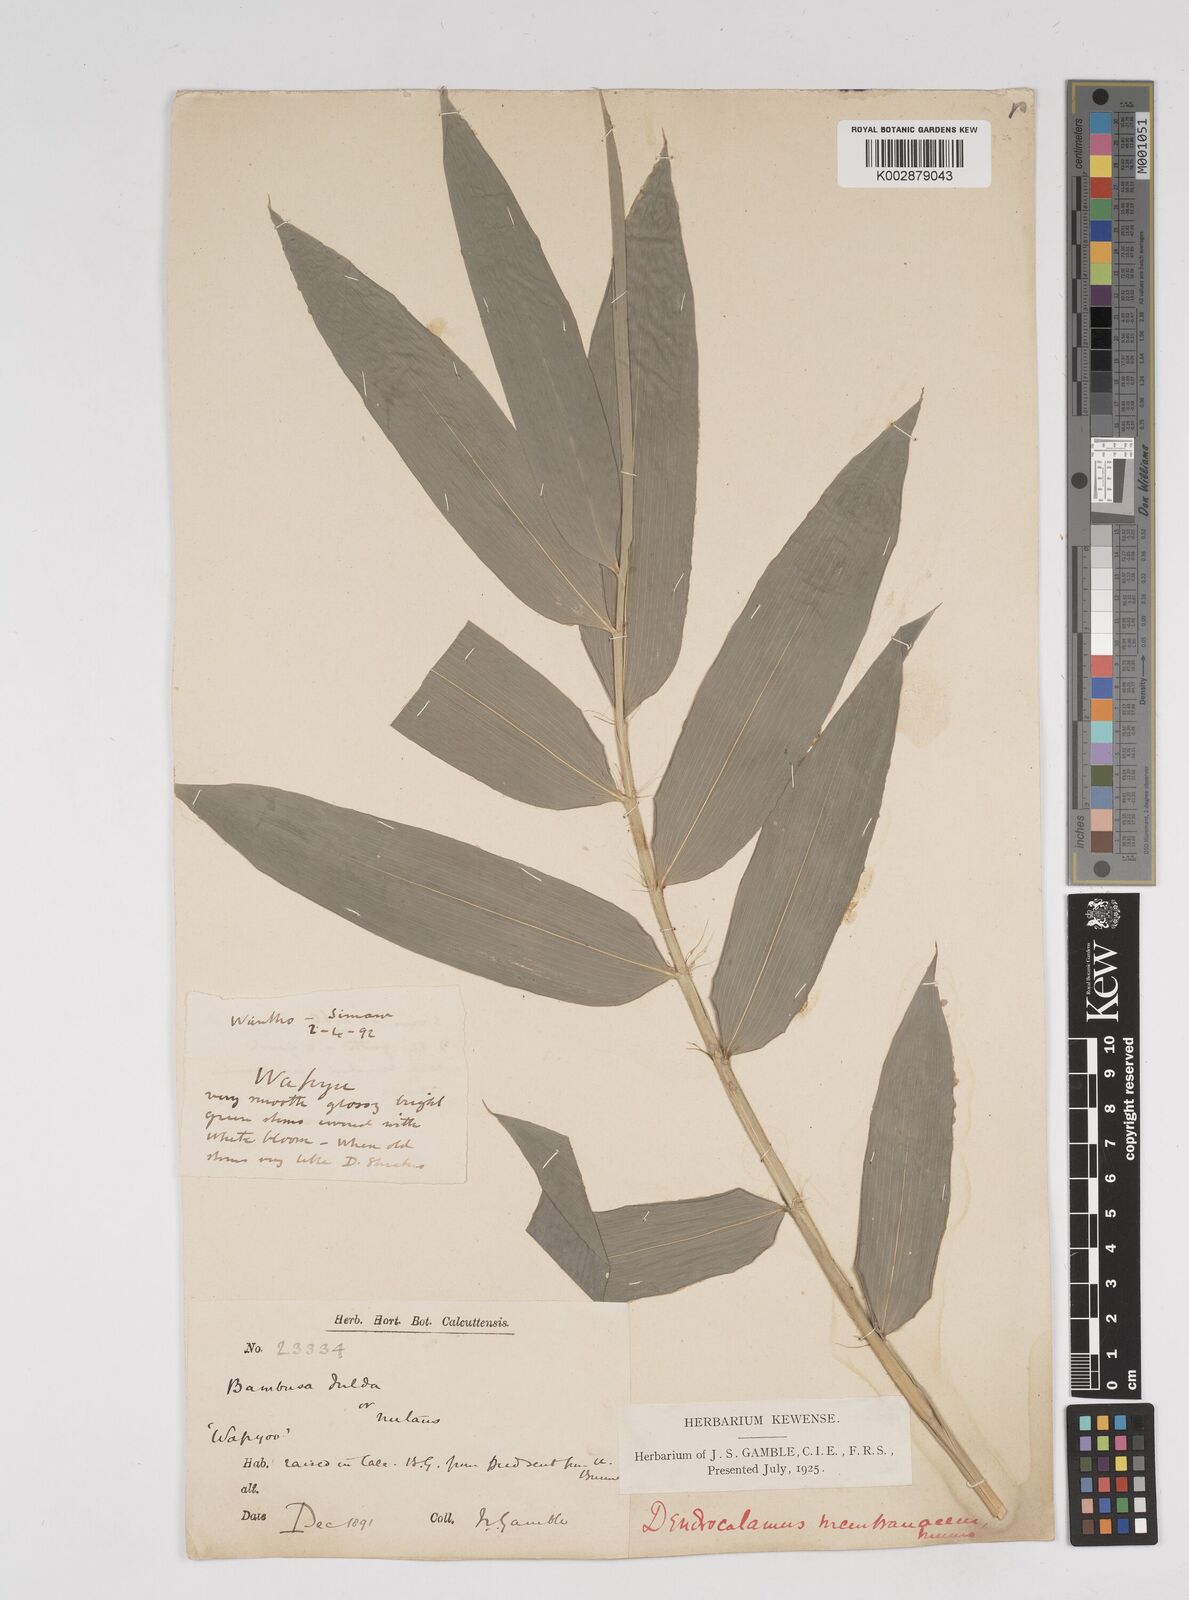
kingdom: Plantae
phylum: Tracheophyta
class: Liliopsida
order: Poales
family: Poaceae
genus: Dendrocalamus
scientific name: Dendrocalamus membranaceus
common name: White bamboo
